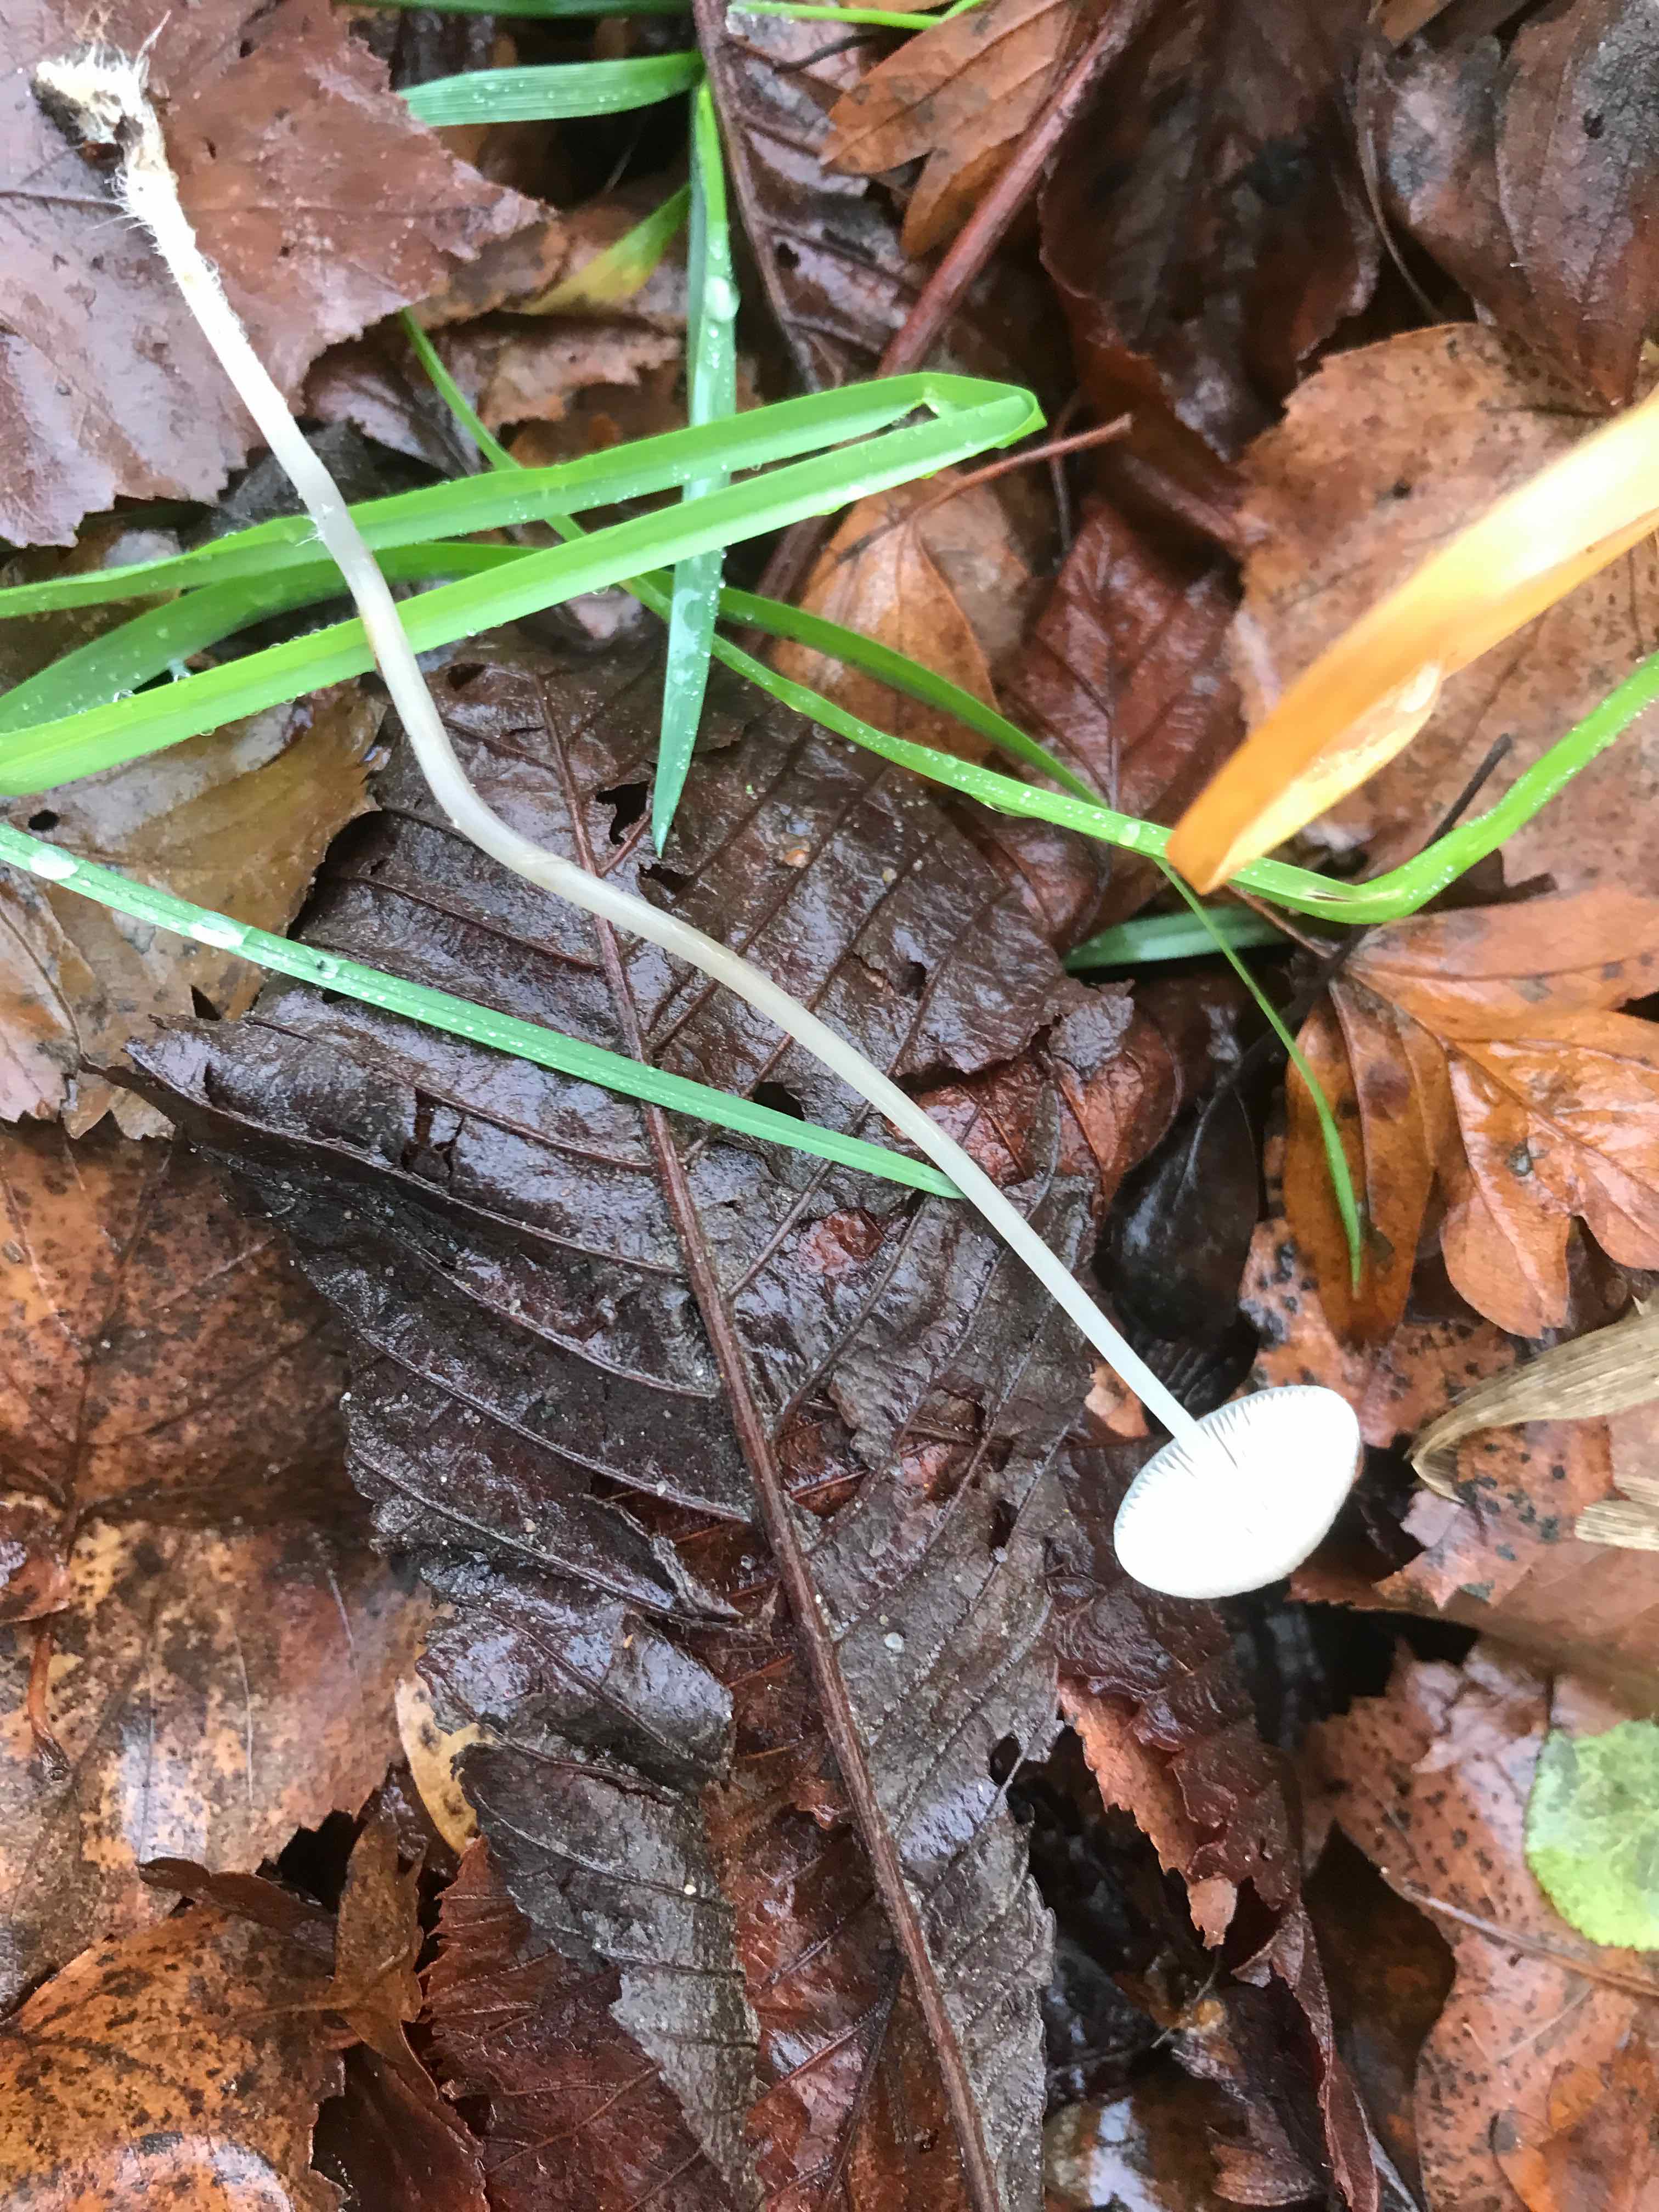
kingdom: Fungi
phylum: Basidiomycota
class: Agaricomycetes
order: Agaricales
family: Mycenaceae
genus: Mycena
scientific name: Mycena vitilis
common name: blankstokket huesvamp
